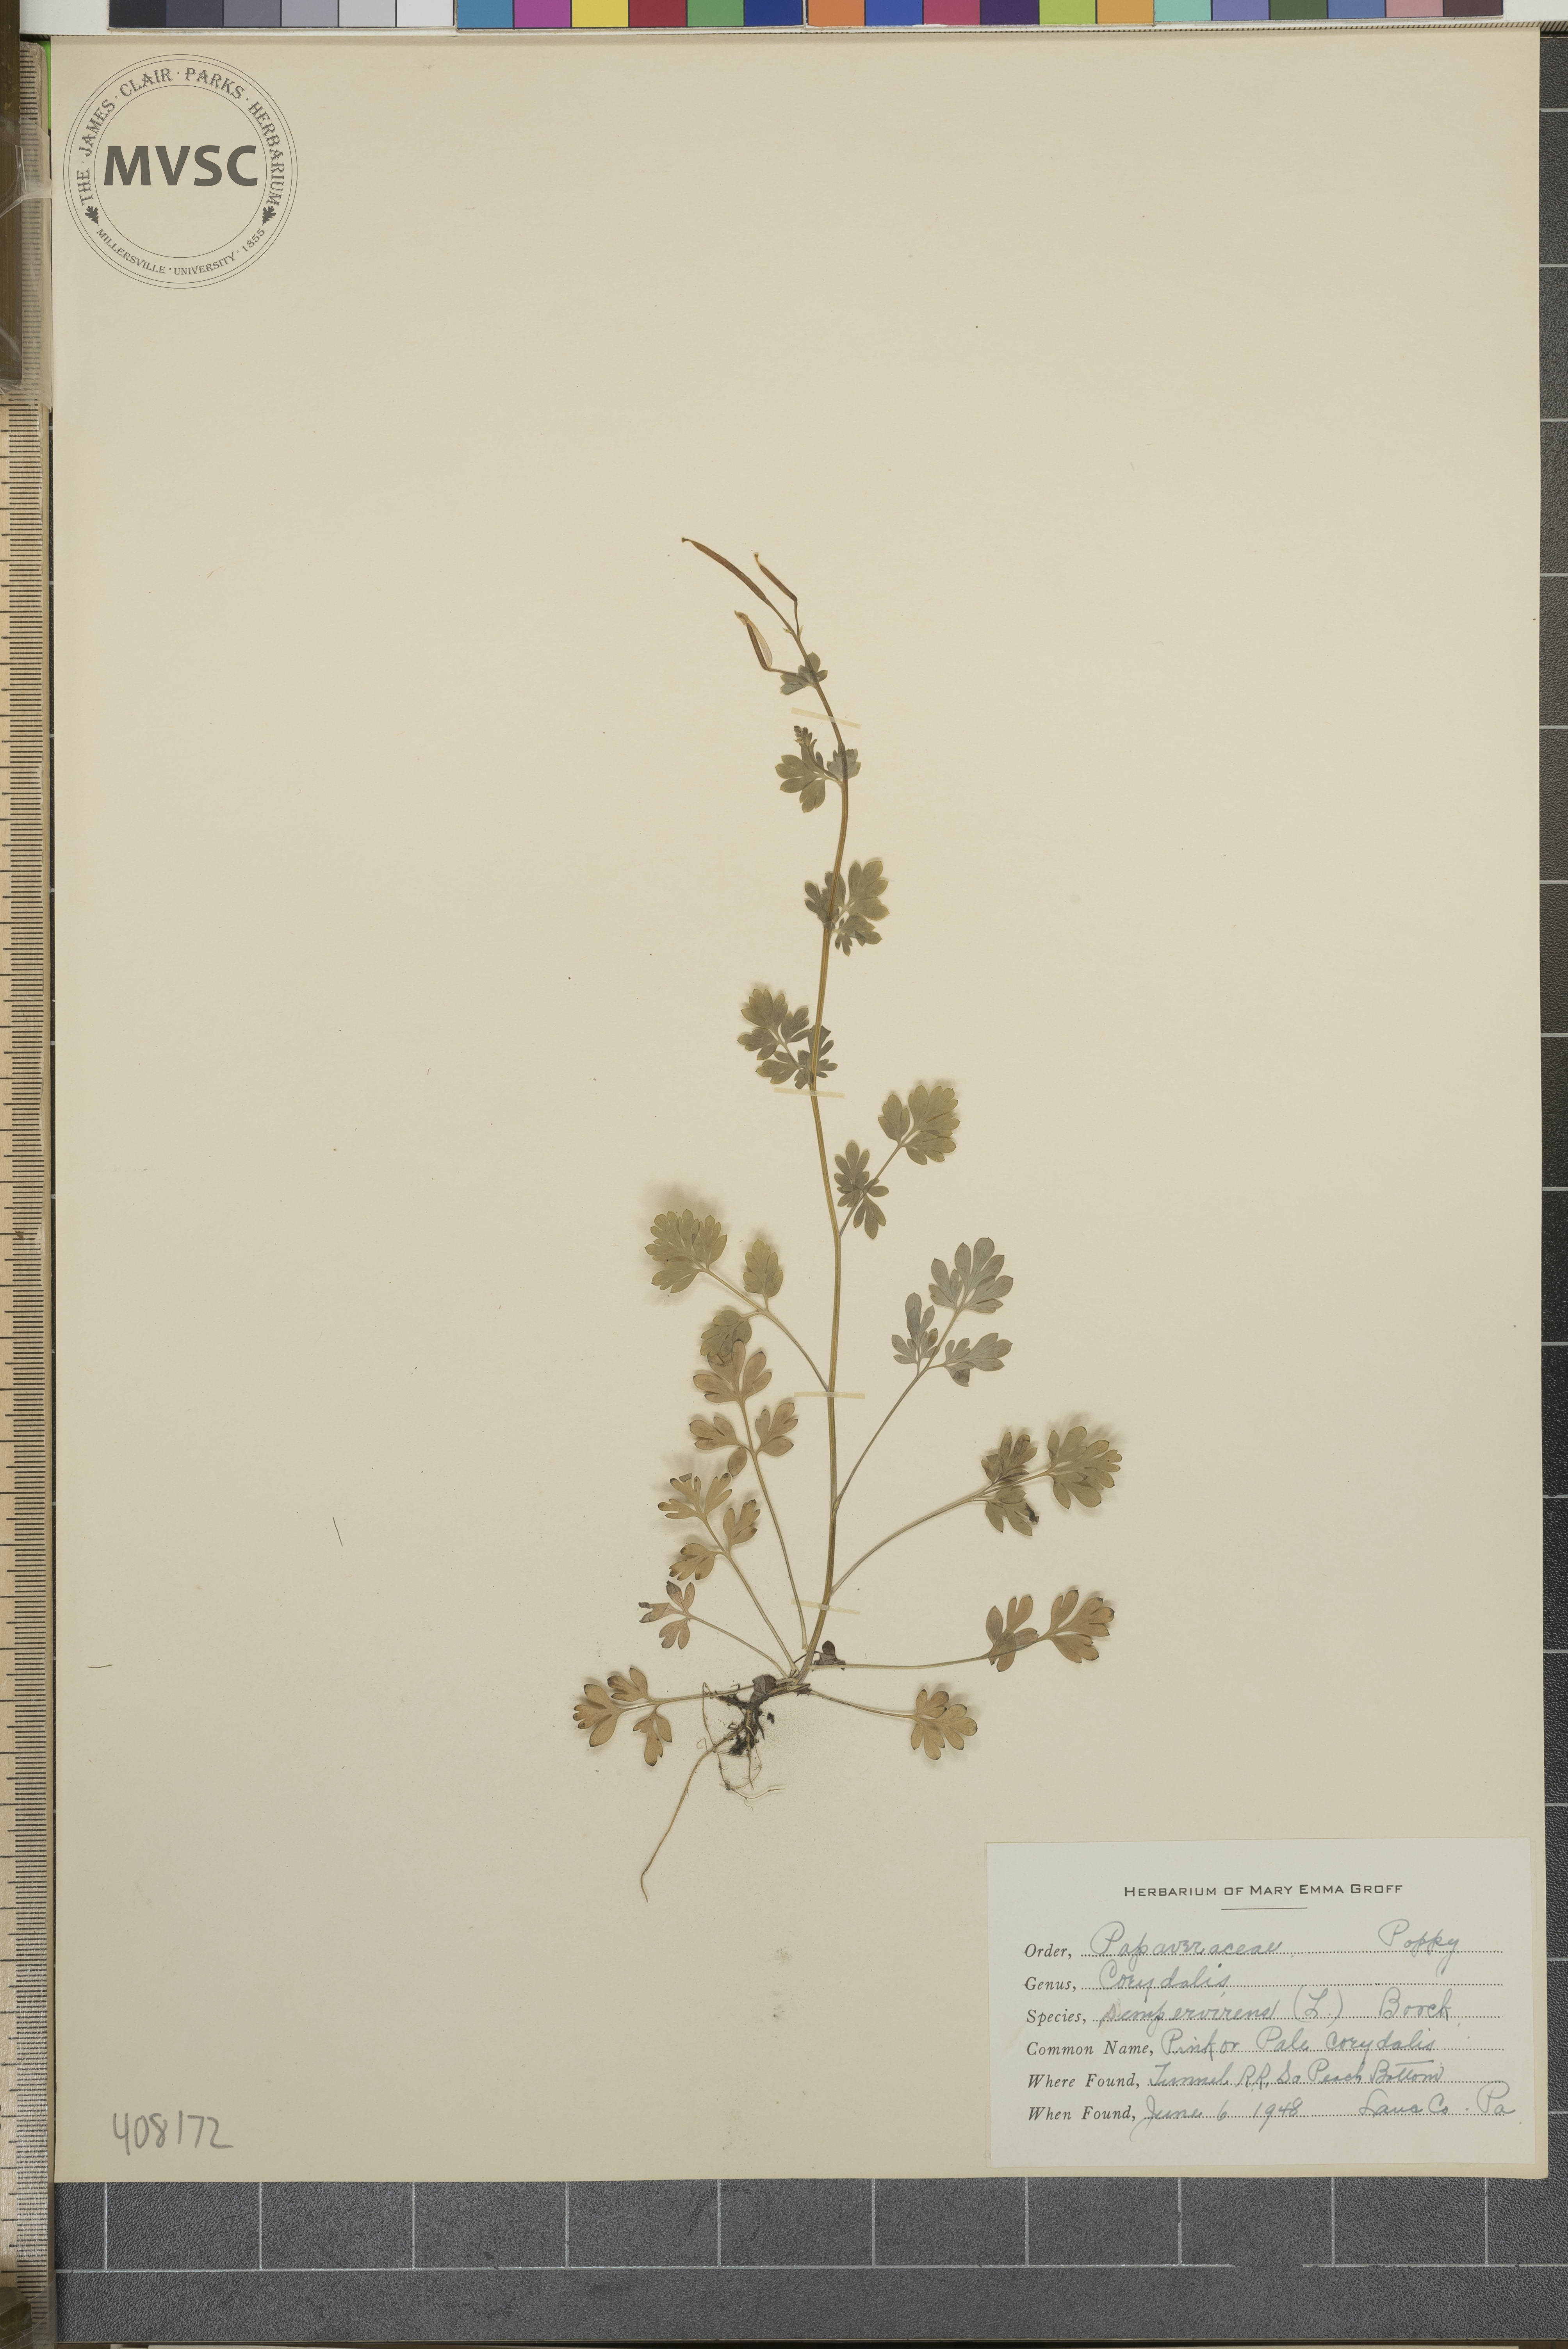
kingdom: Plantae
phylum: Tracheophyta
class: Magnoliopsida
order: Ranunculales
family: Papaveraceae
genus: Capnoides
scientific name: Capnoides sempervirens
